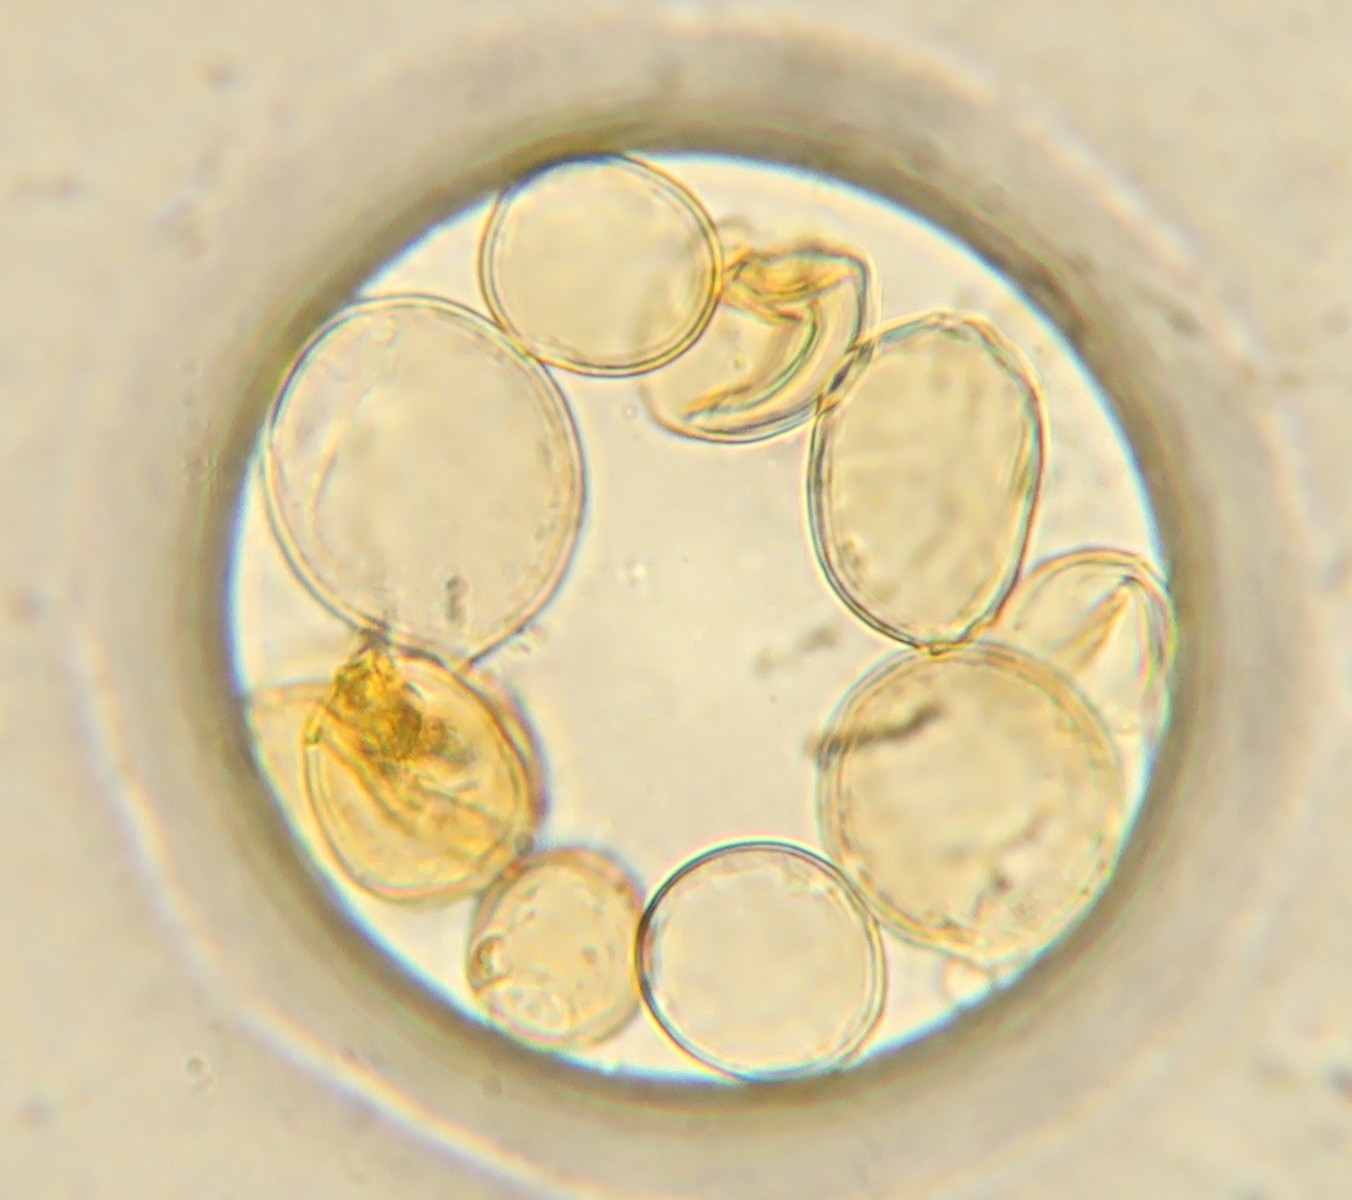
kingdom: Fungi
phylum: Basidiomycota
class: Agaricomycetes
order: Agaricales
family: Tricholomataceae
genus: Cystoderma
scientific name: Cystoderma
